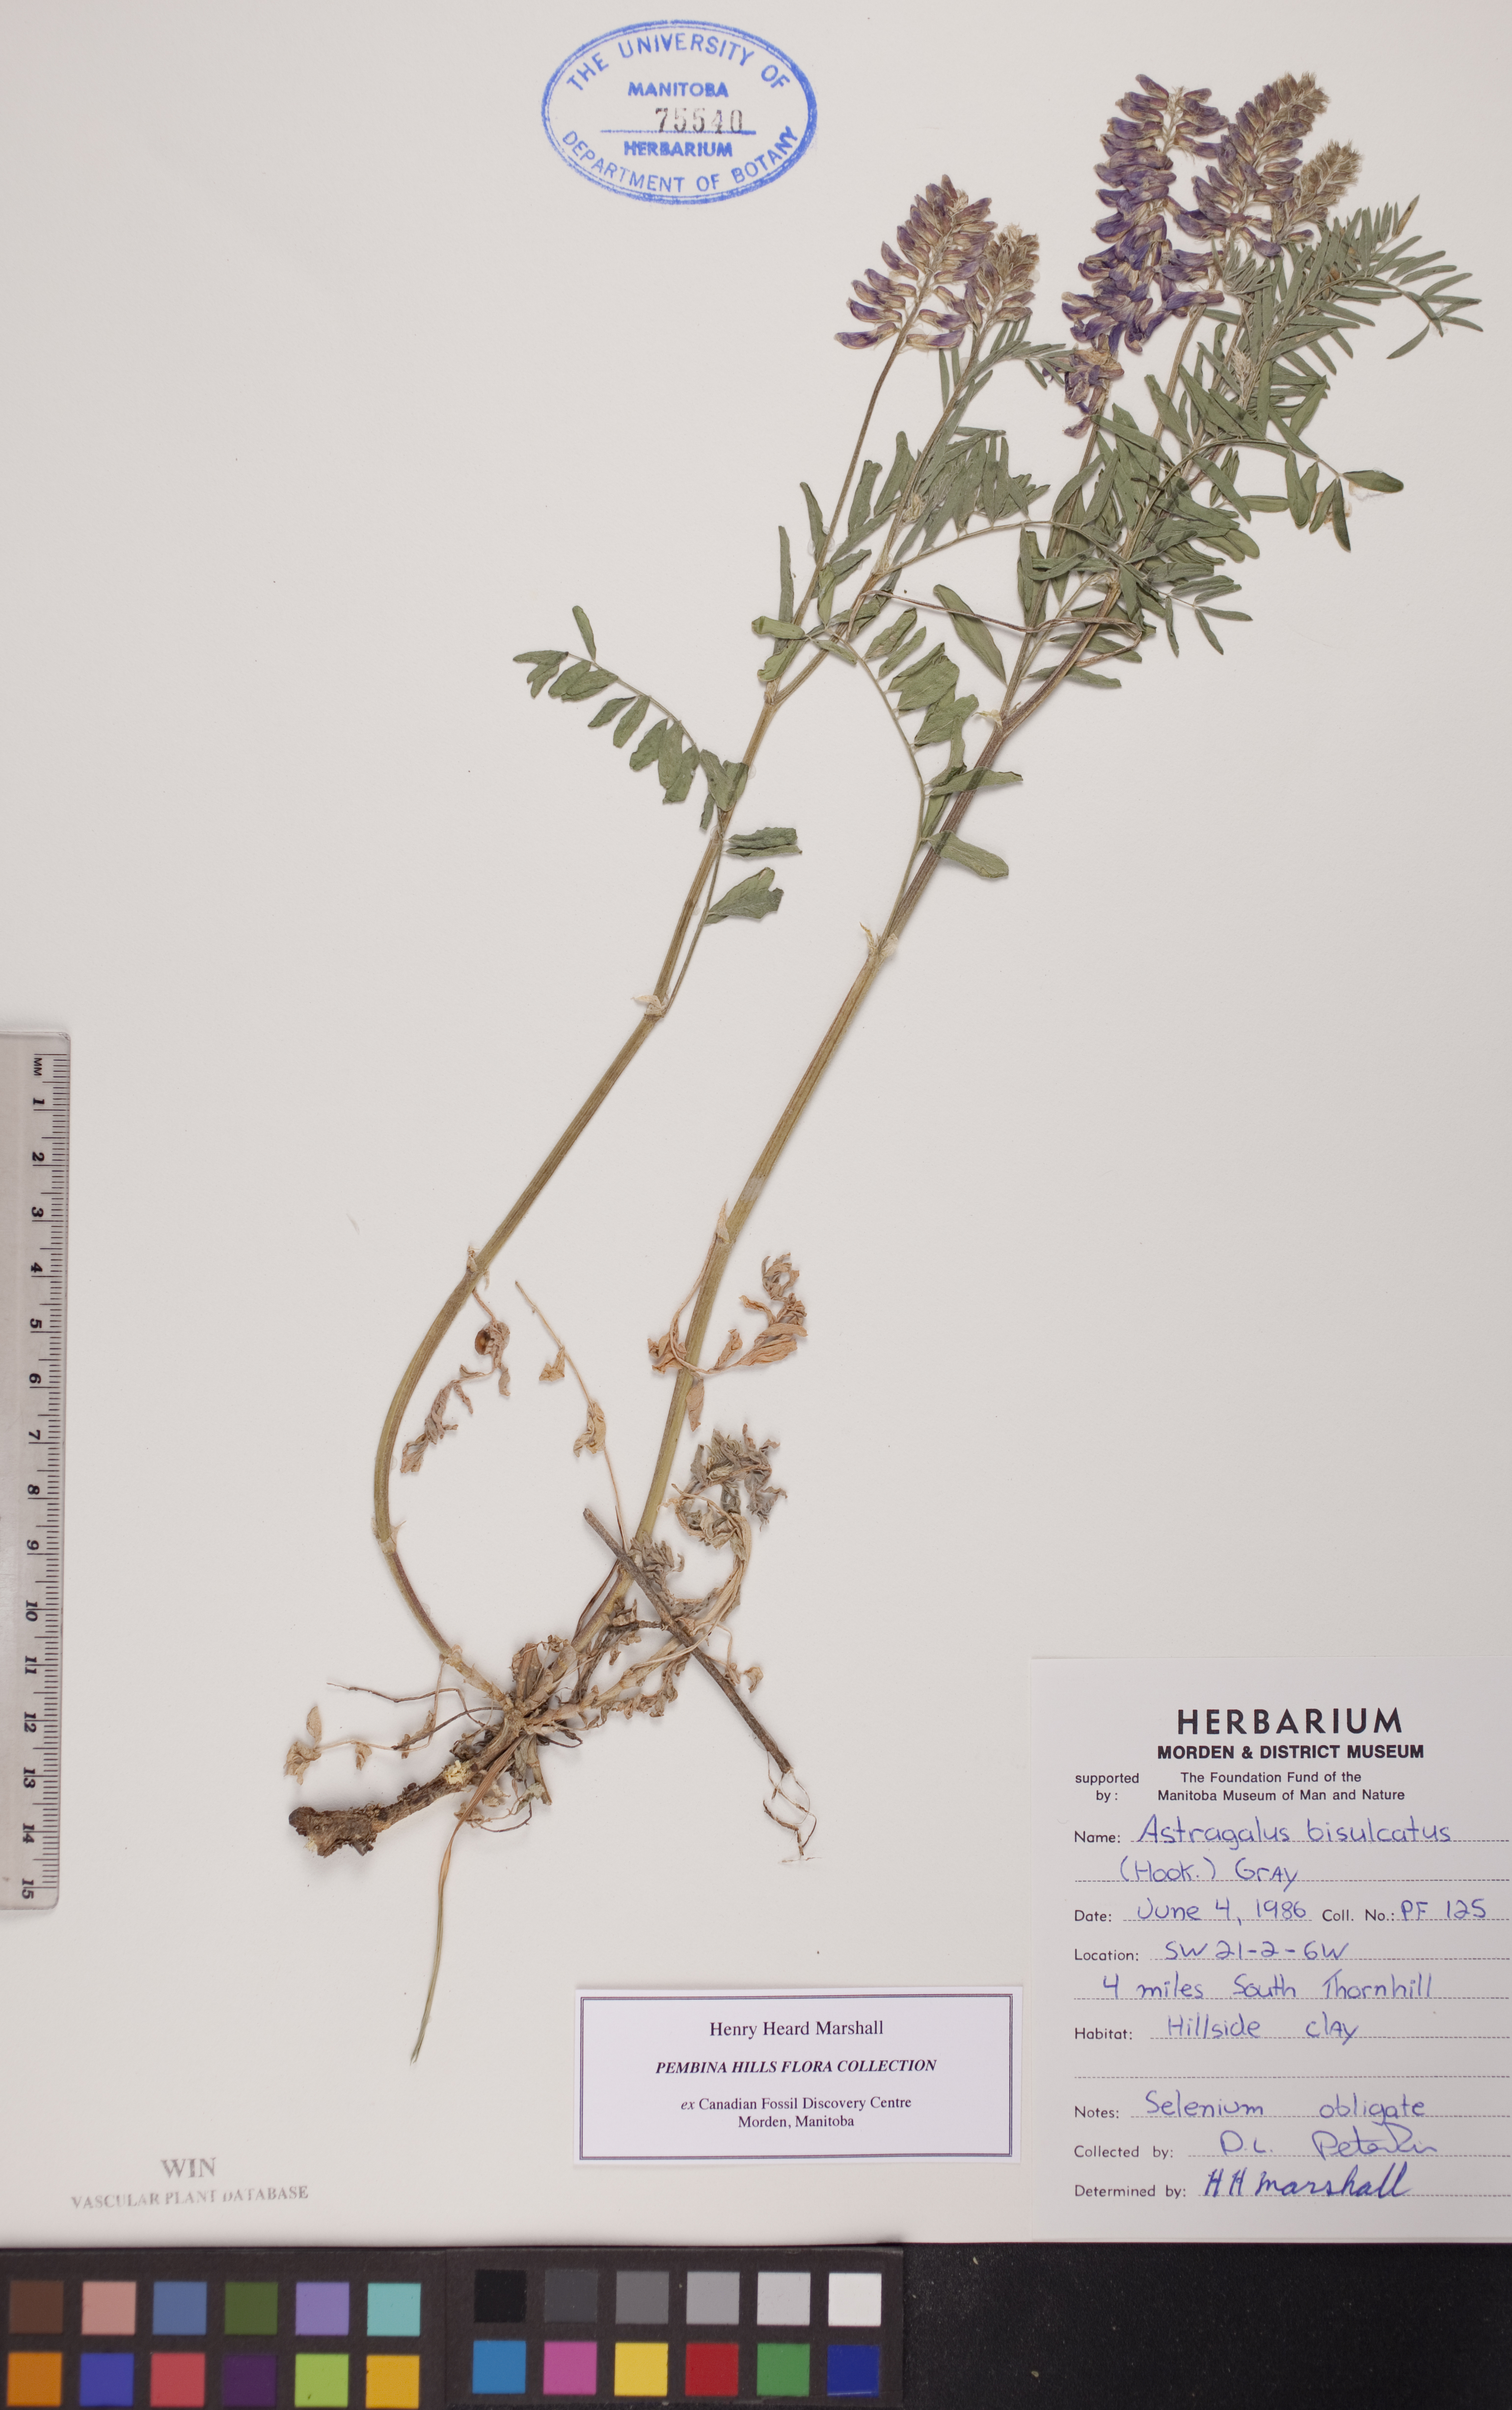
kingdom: Plantae
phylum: Tracheophyta
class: Magnoliopsida
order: Fabales
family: Fabaceae
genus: Astragalus
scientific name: Astragalus bisulcatus
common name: Two-groove milk-vetch
